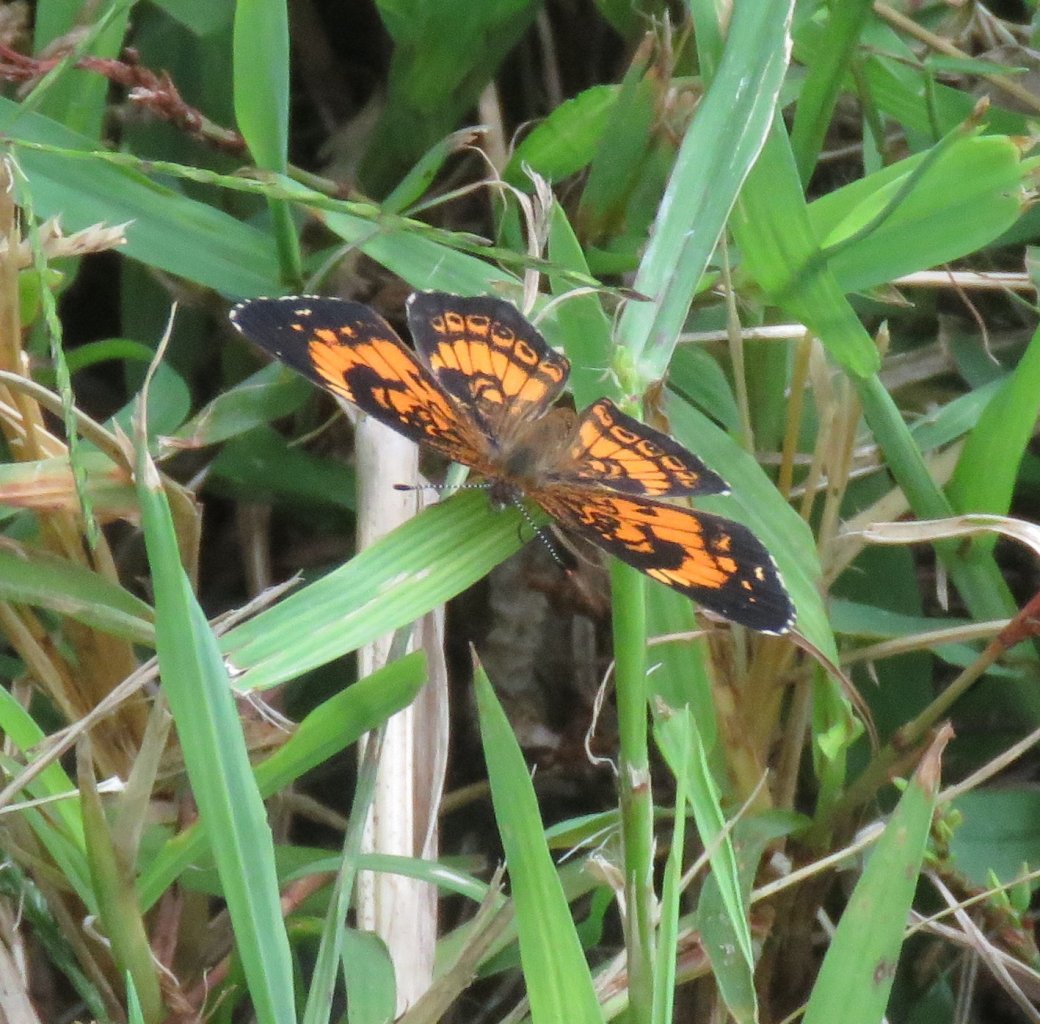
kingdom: Animalia
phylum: Arthropoda
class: Insecta
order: Lepidoptera
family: Nymphalidae
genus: Chlosyne
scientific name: Chlosyne nycteis
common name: Silvery Checkerspot
